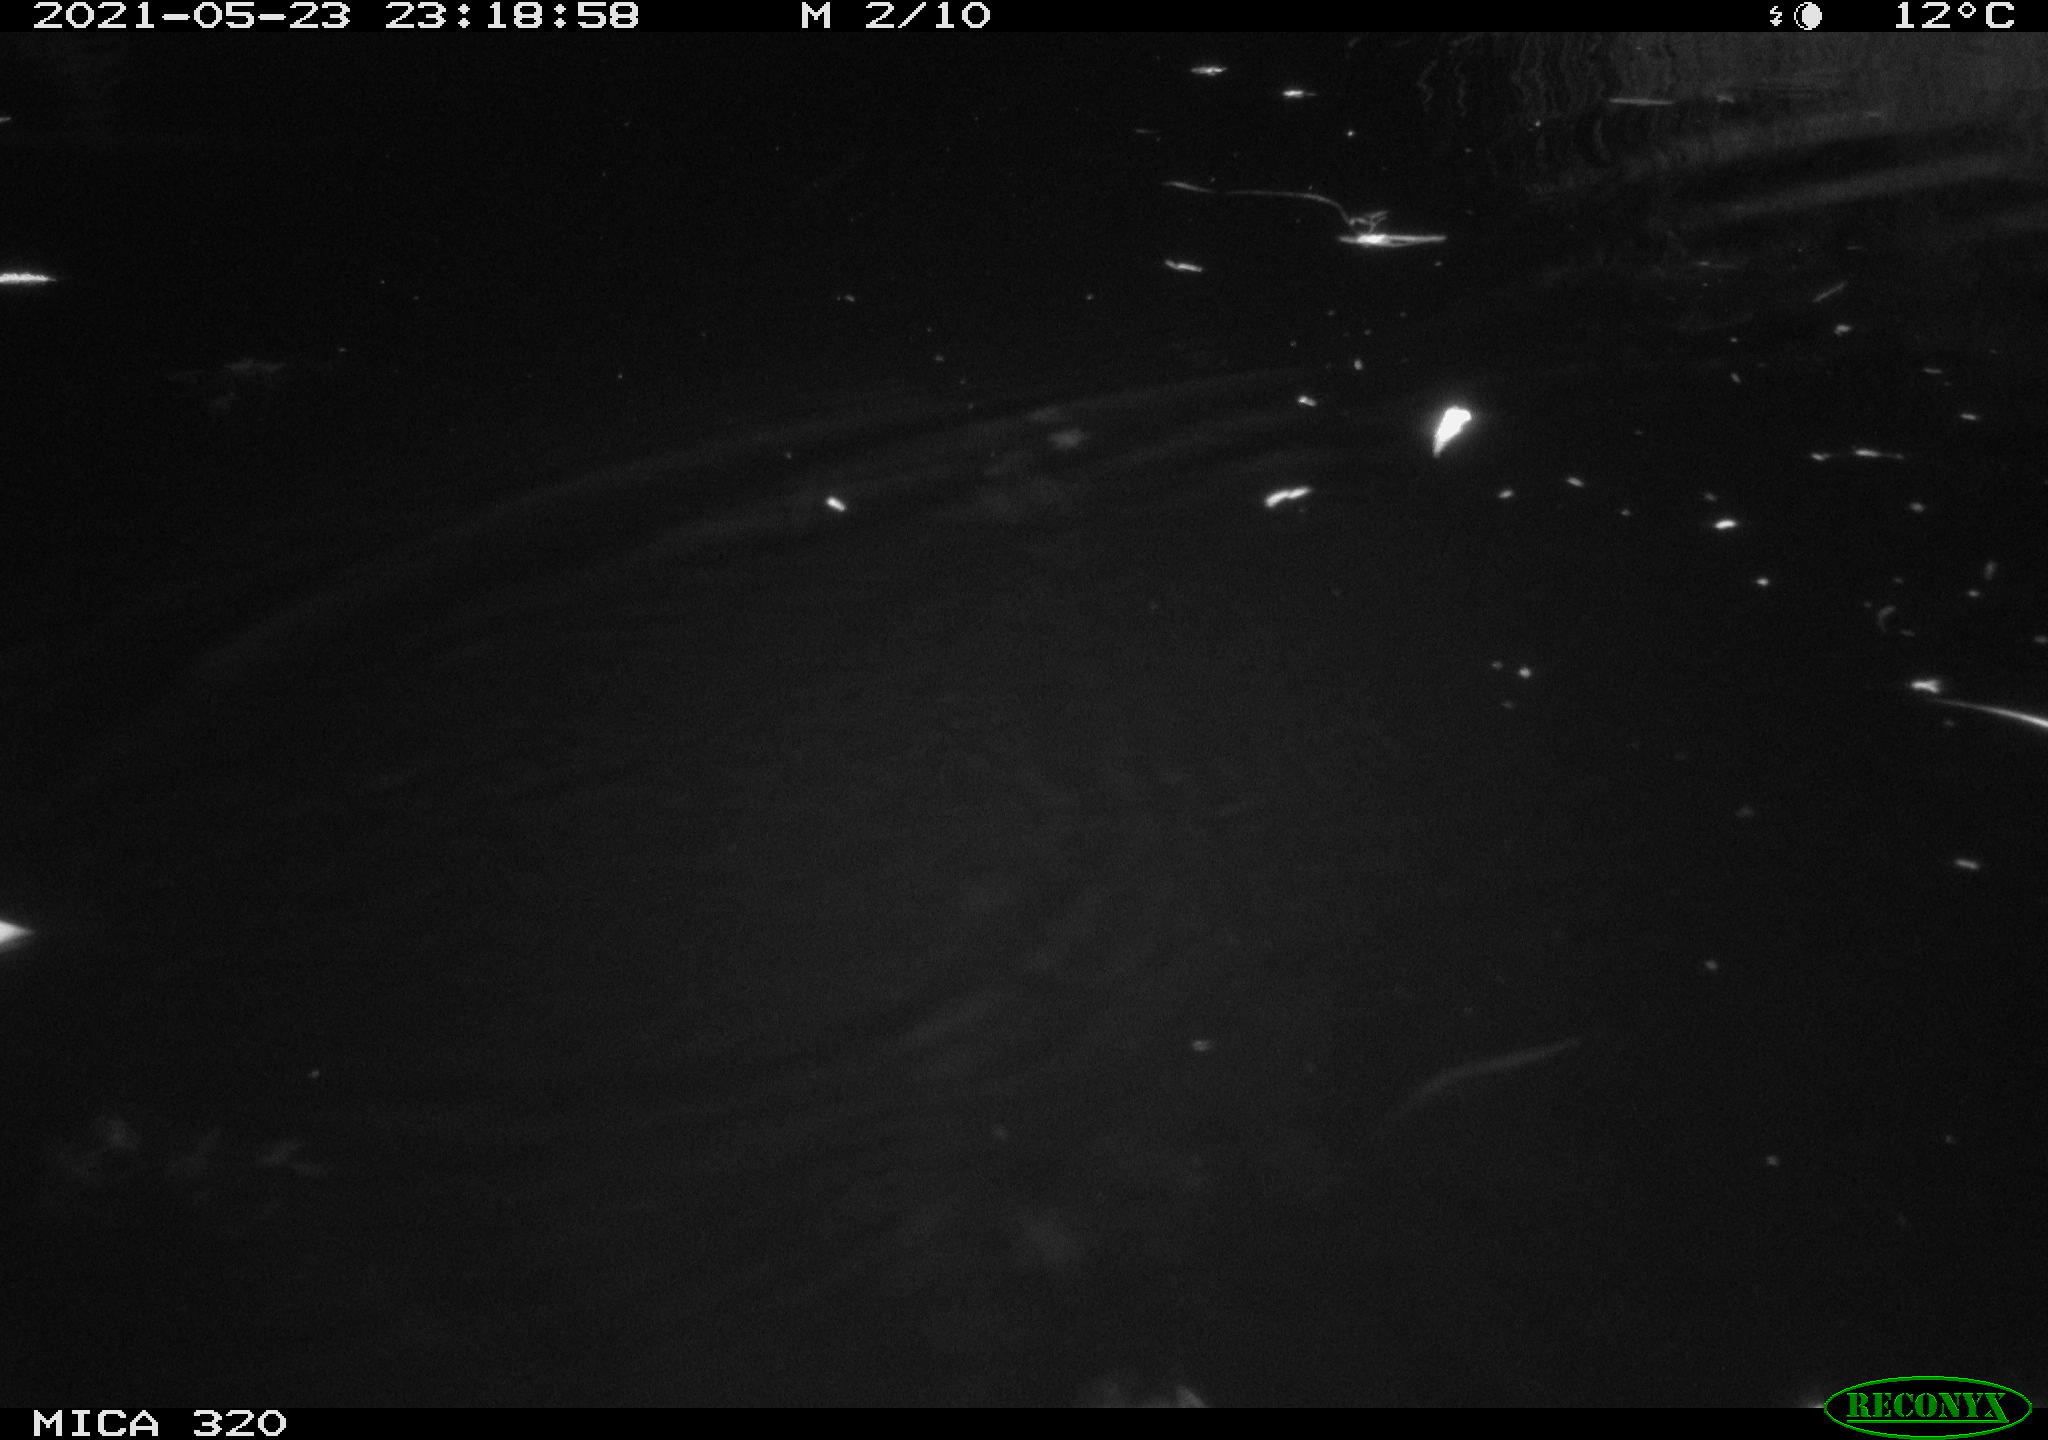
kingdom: Animalia
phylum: Chordata
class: Aves
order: Anseriformes
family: Anatidae
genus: Mareca
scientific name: Mareca strepera
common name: Gadwall
